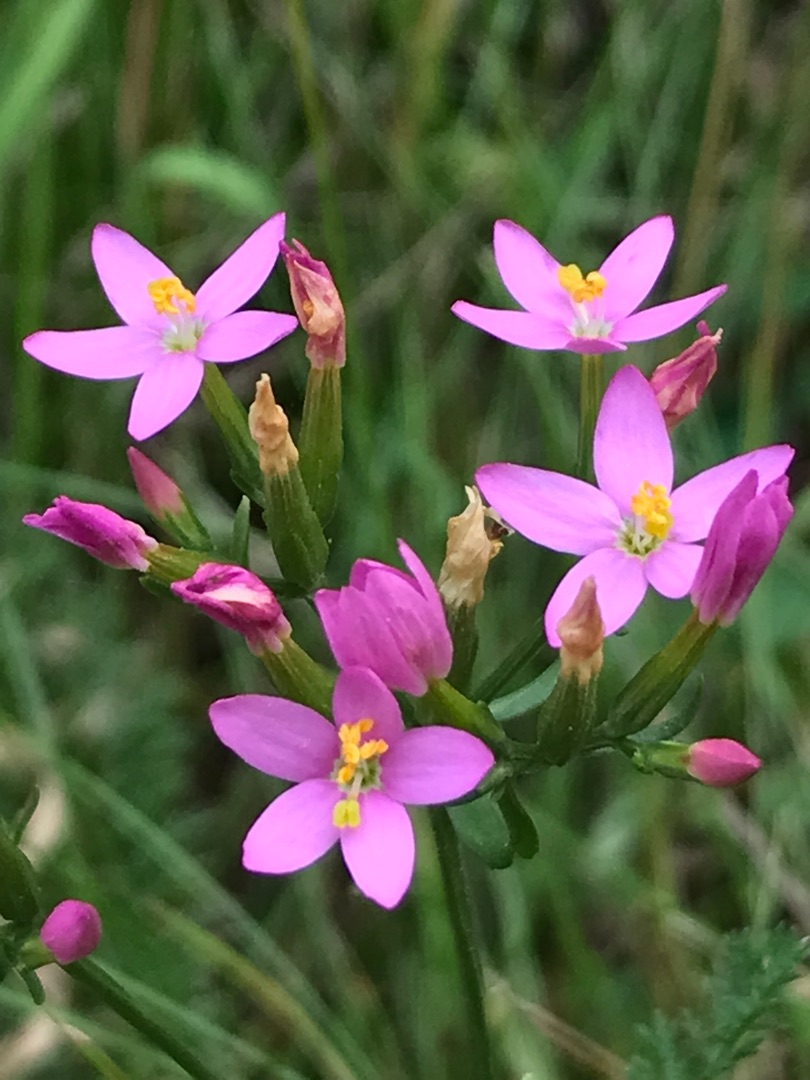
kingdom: Plantae
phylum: Tracheophyta
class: Magnoliopsida
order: Gentianales
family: Gentianaceae
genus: Centaurium
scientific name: Centaurium erythraea
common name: Mark-tusindgylden
